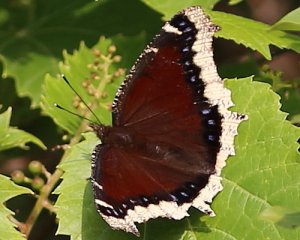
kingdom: Animalia
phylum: Arthropoda
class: Insecta
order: Lepidoptera
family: Nymphalidae
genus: Nymphalis
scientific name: Nymphalis antiopa
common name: Mourning Cloak
